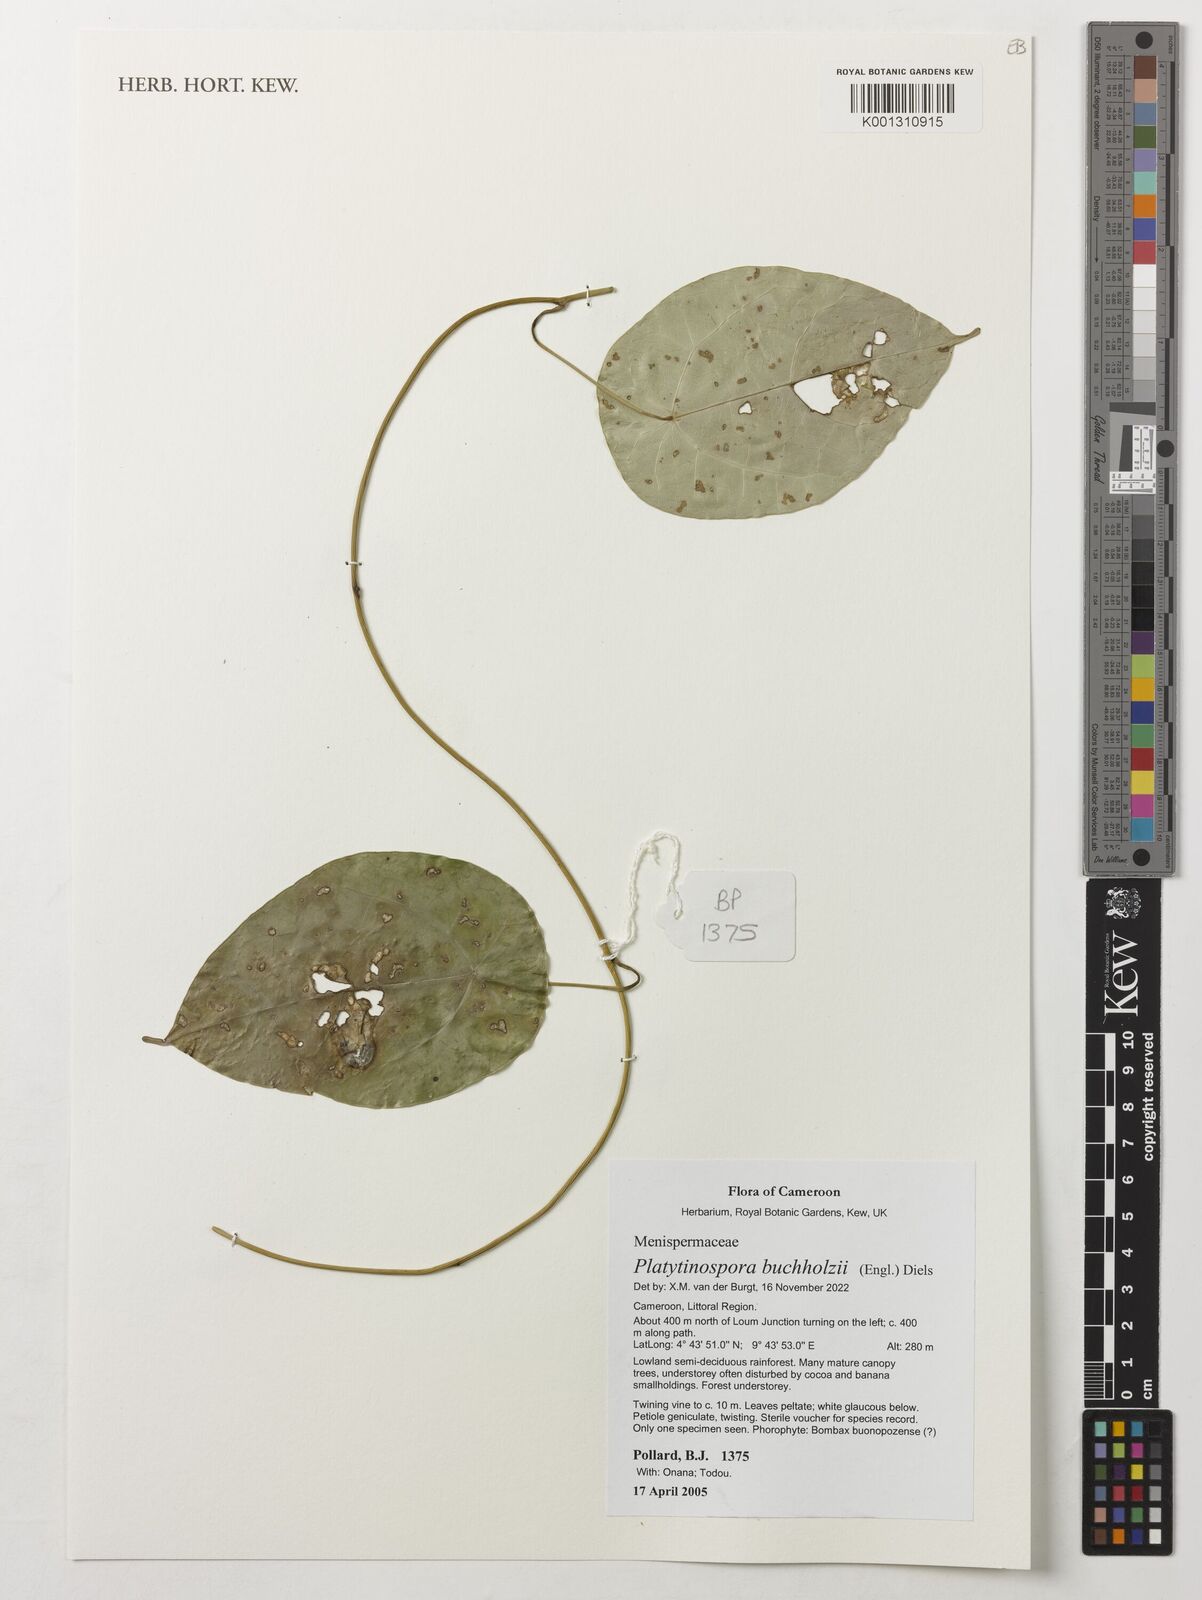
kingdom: Plantae
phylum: Tracheophyta
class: Magnoliopsida
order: Ranunculales
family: Menispermaceae
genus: Platytinospora
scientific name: Platytinospora buchholzii
